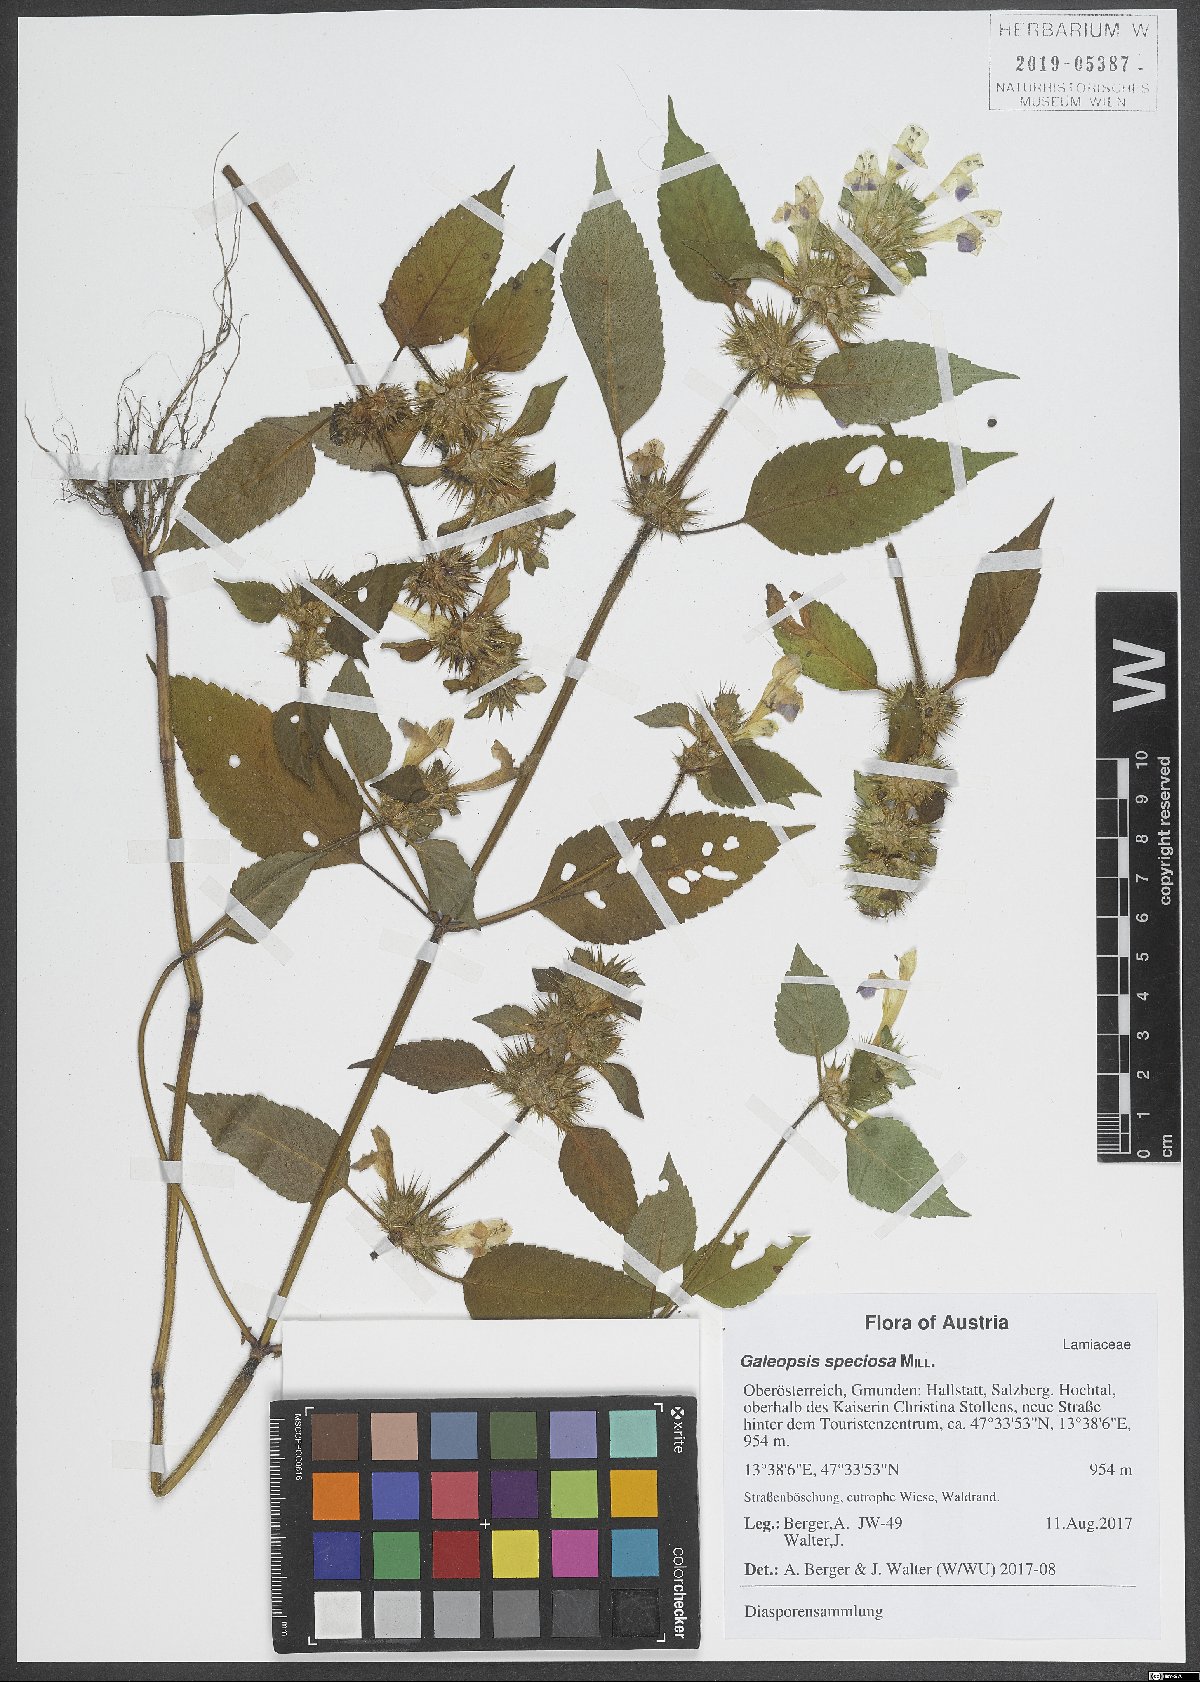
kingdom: Plantae
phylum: Tracheophyta
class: Magnoliopsida
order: Lamiales
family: Lamiaceae
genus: Galeopsis
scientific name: Galeopsis speciosa
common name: Large-flowered hemp-nettle
